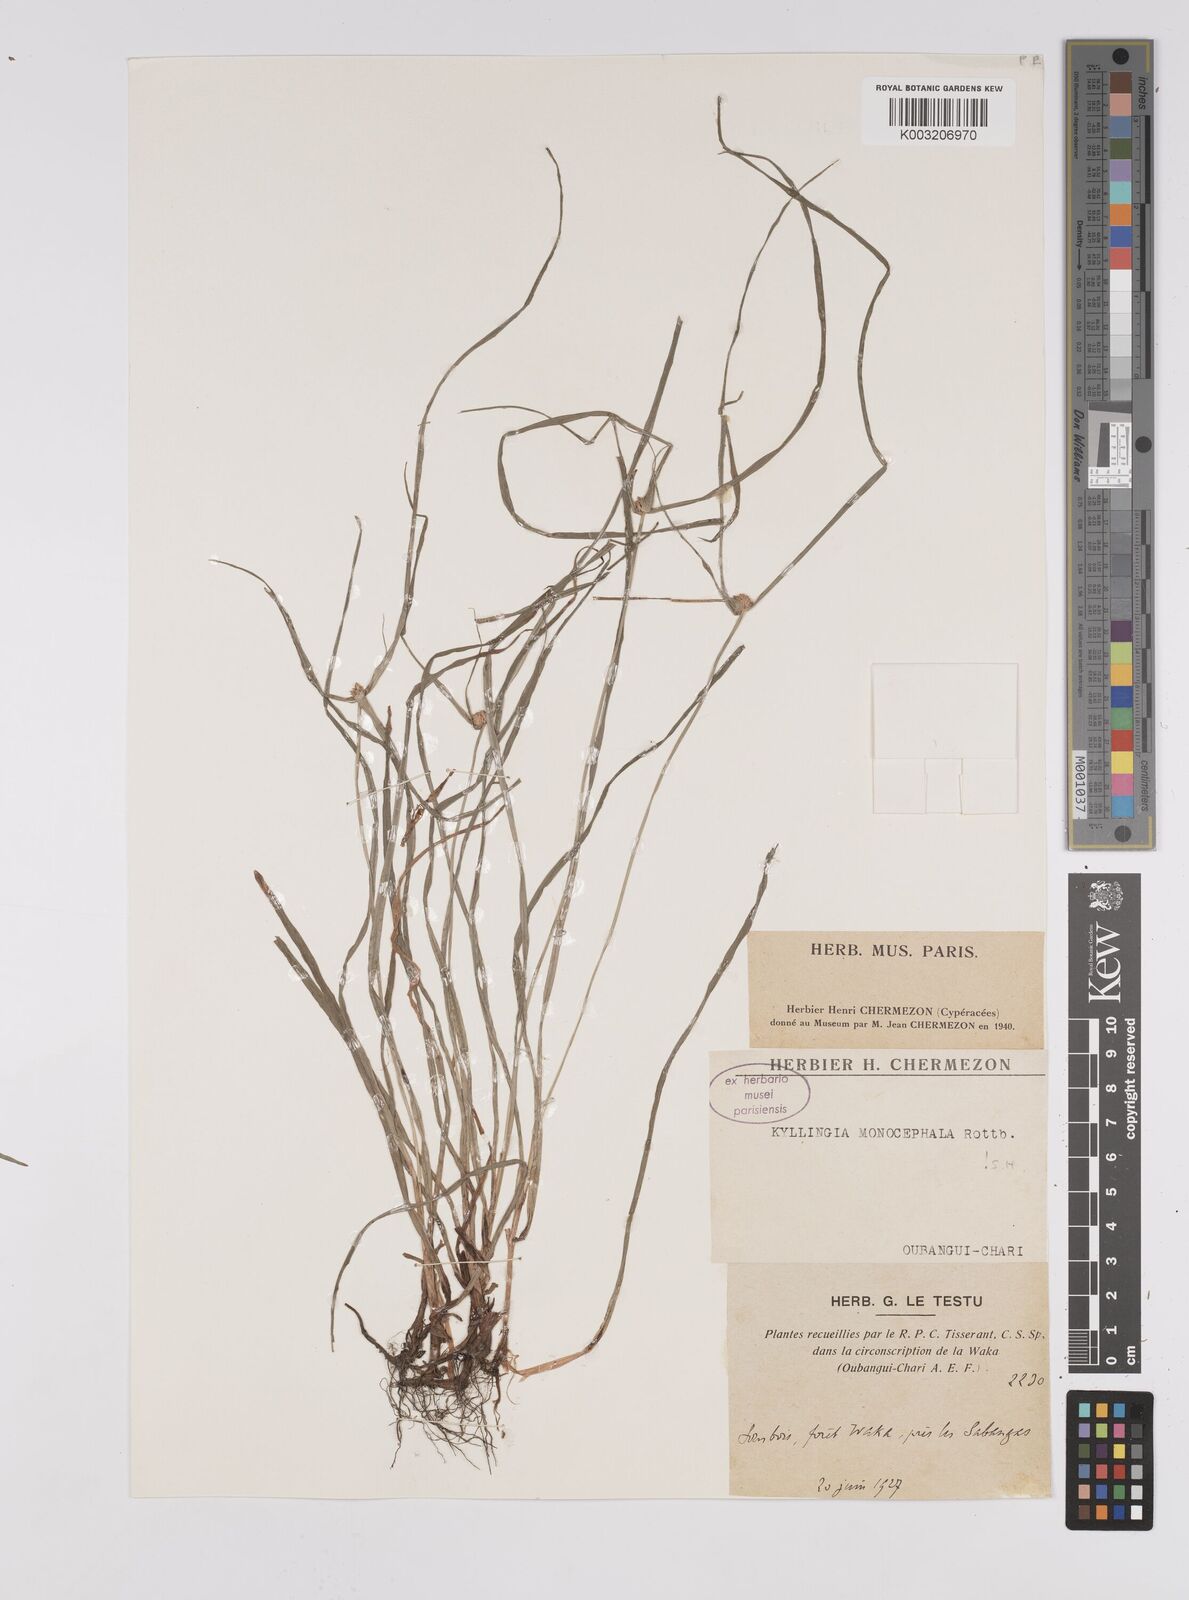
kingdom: Plantae
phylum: Tracheophyta
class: Liliopsida
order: Poales
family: Cyperaceae
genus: Cyperus
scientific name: Cyperus nemoralis
